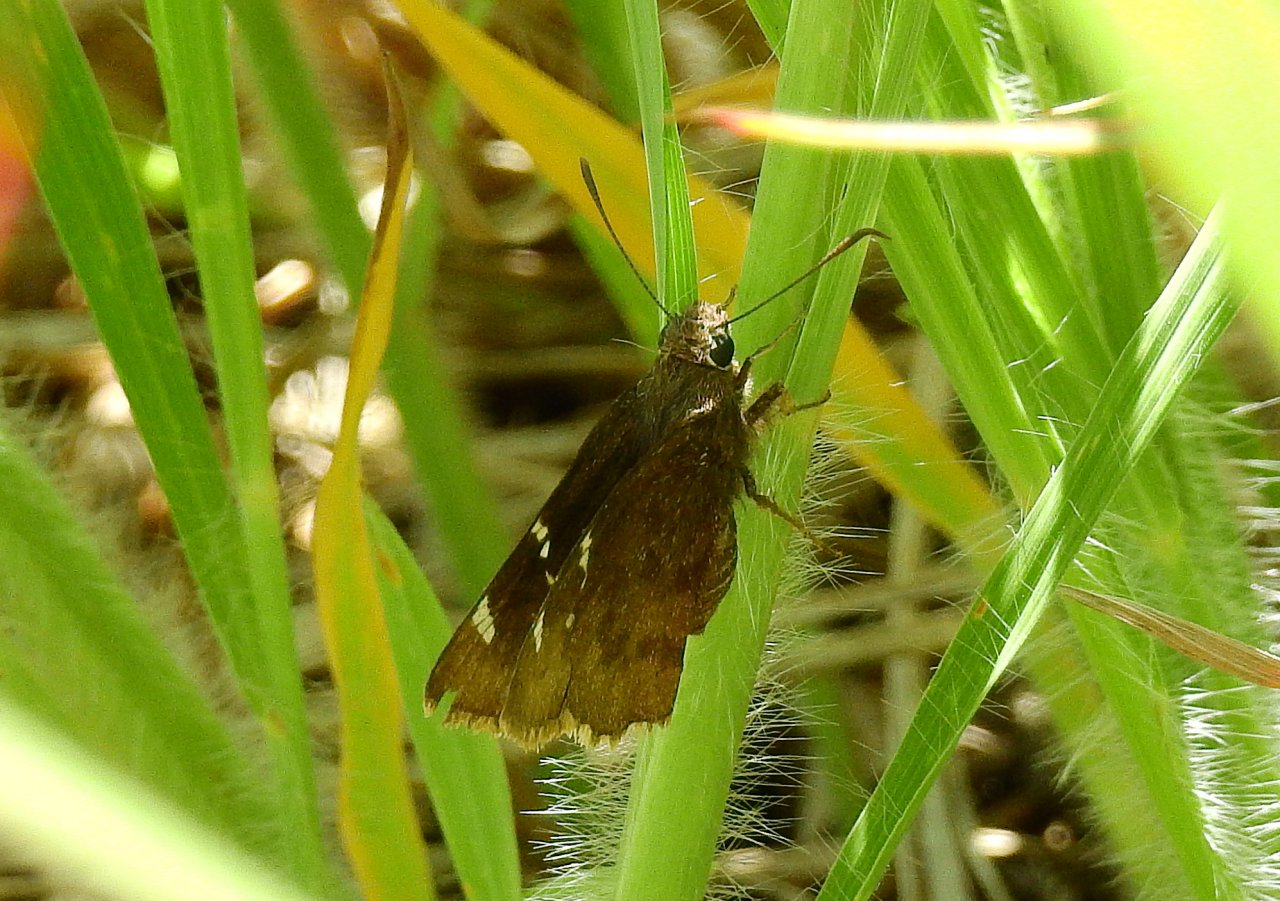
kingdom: Animalia
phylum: Arthropoda
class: Insecta
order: Lepidoptera
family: Hesperiidae
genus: Autochton
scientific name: Autochton
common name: Southern Cloudywing
